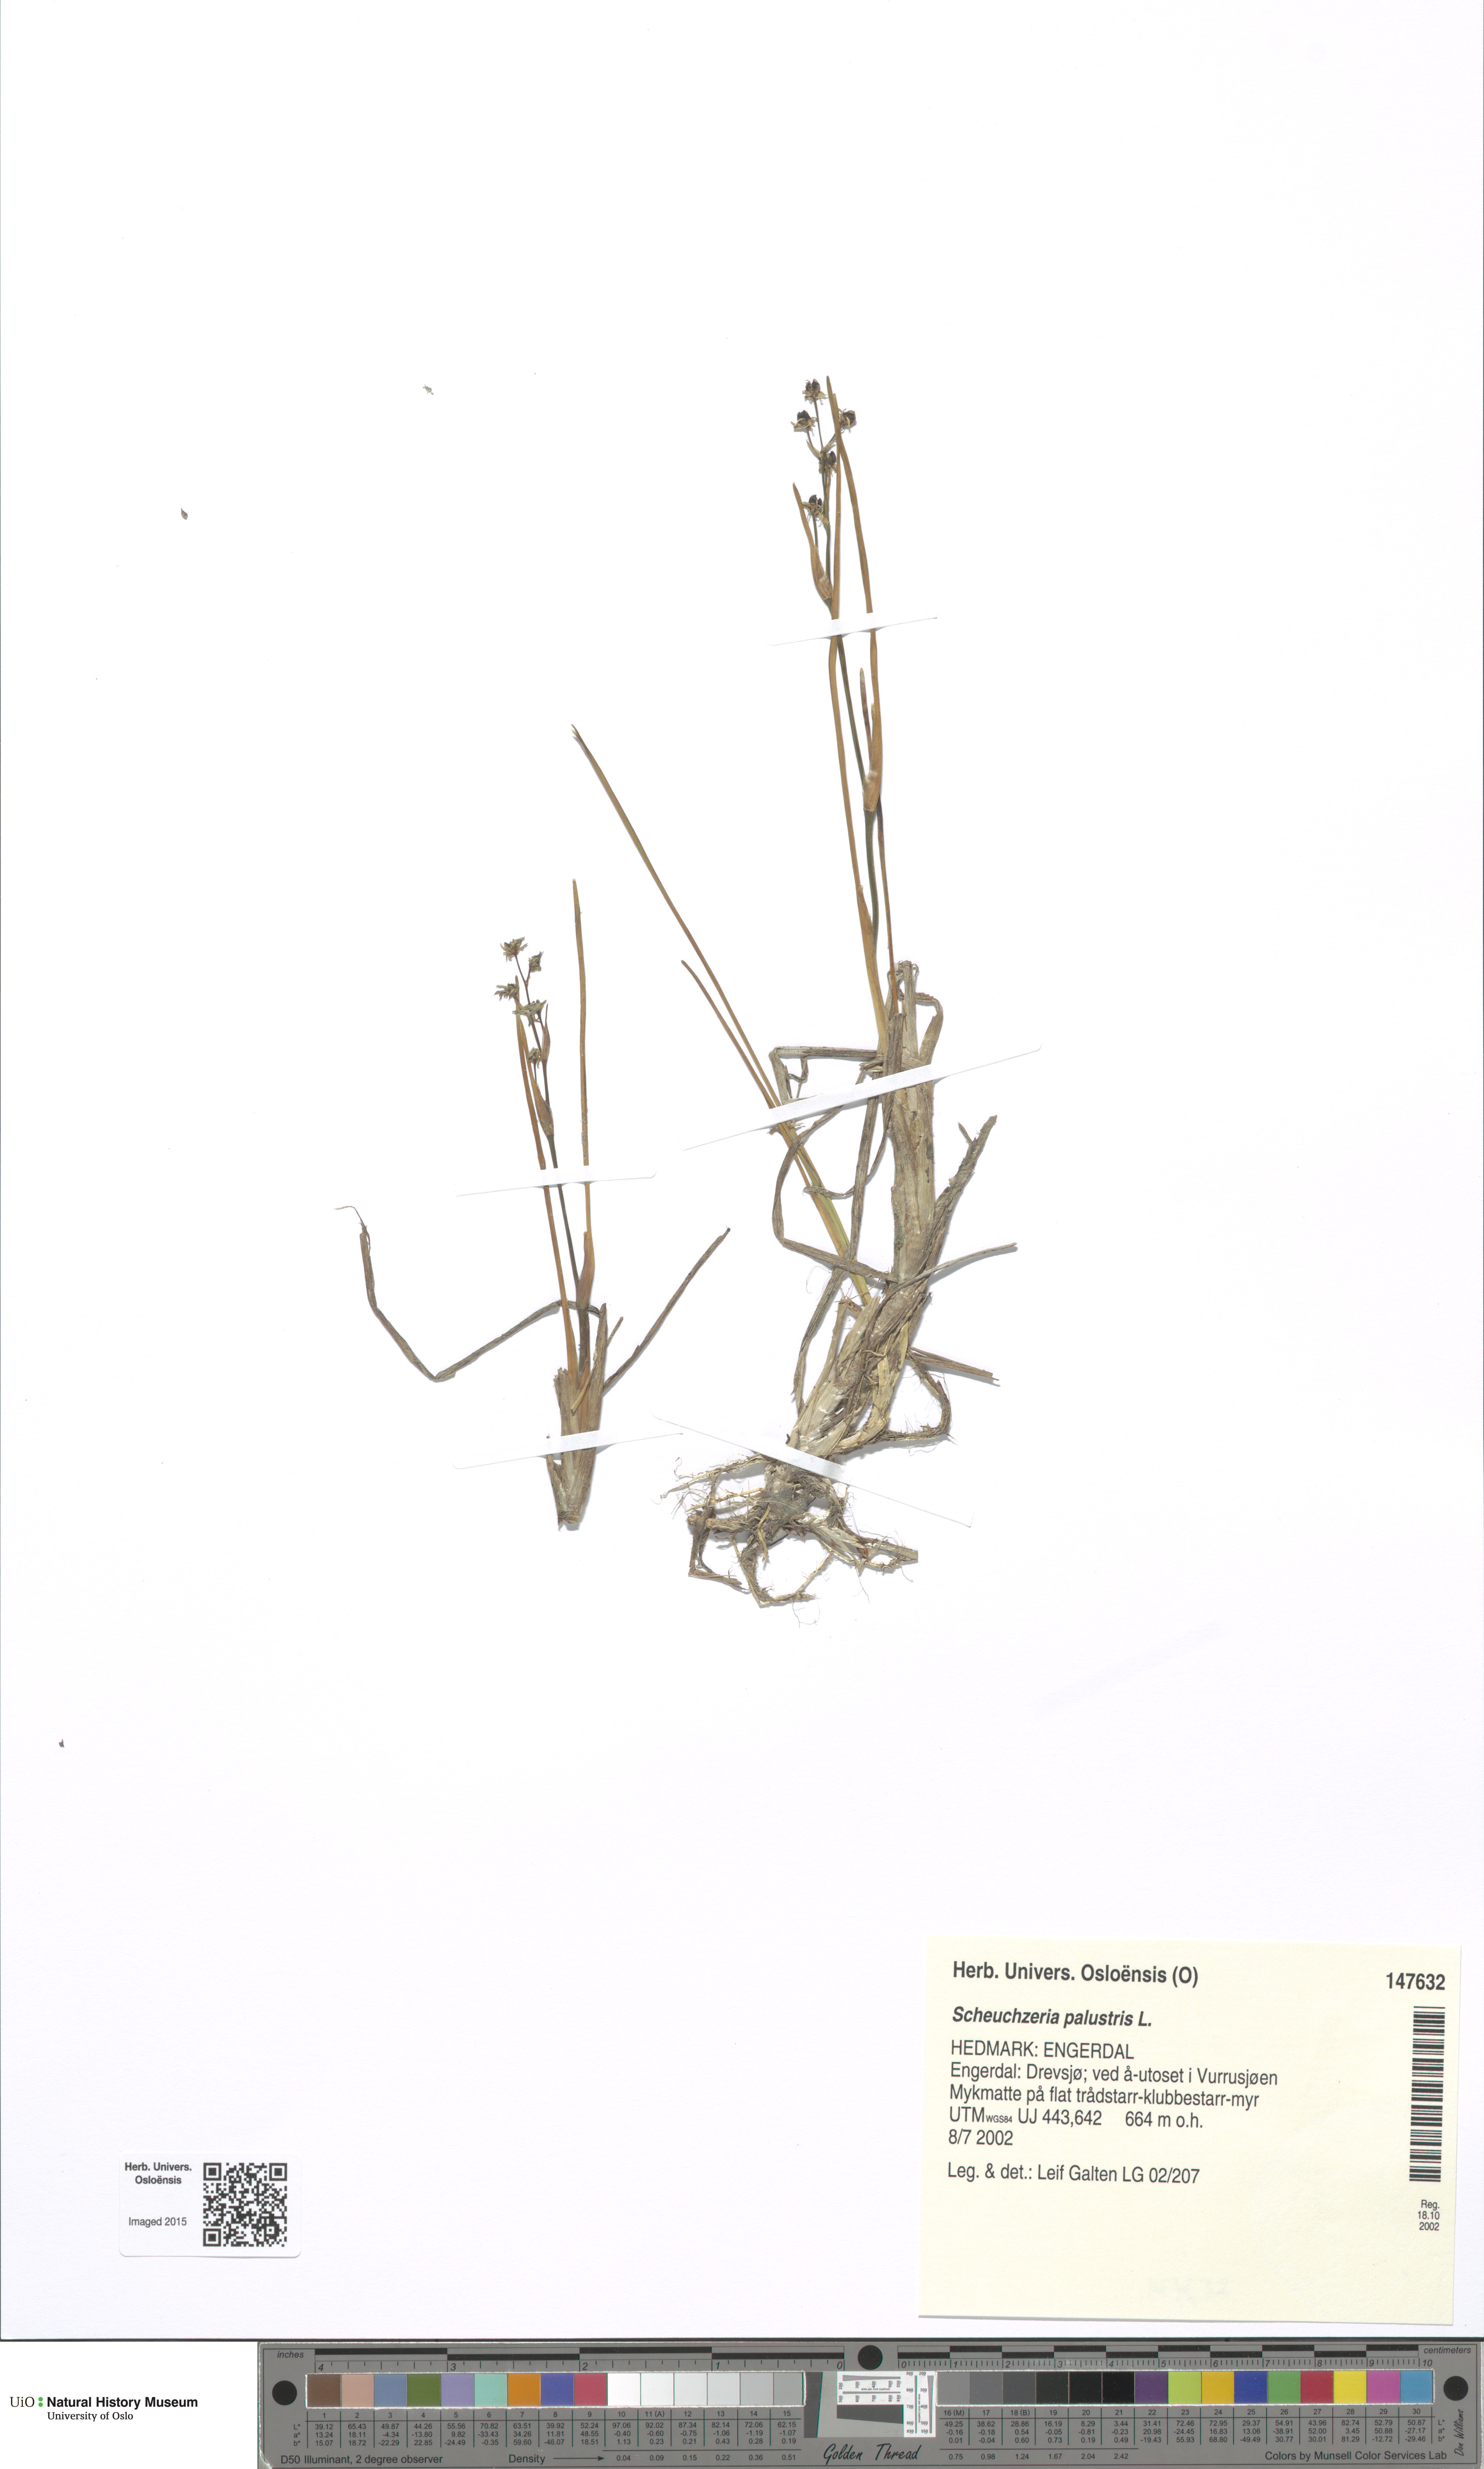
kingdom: Plantae
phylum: Tracheophyta
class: Liliopsida
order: Alismatales
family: Scheuchzeriaceae
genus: Scheuchzeria
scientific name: Scheuchzeria palustris
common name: Rannoch-rush
